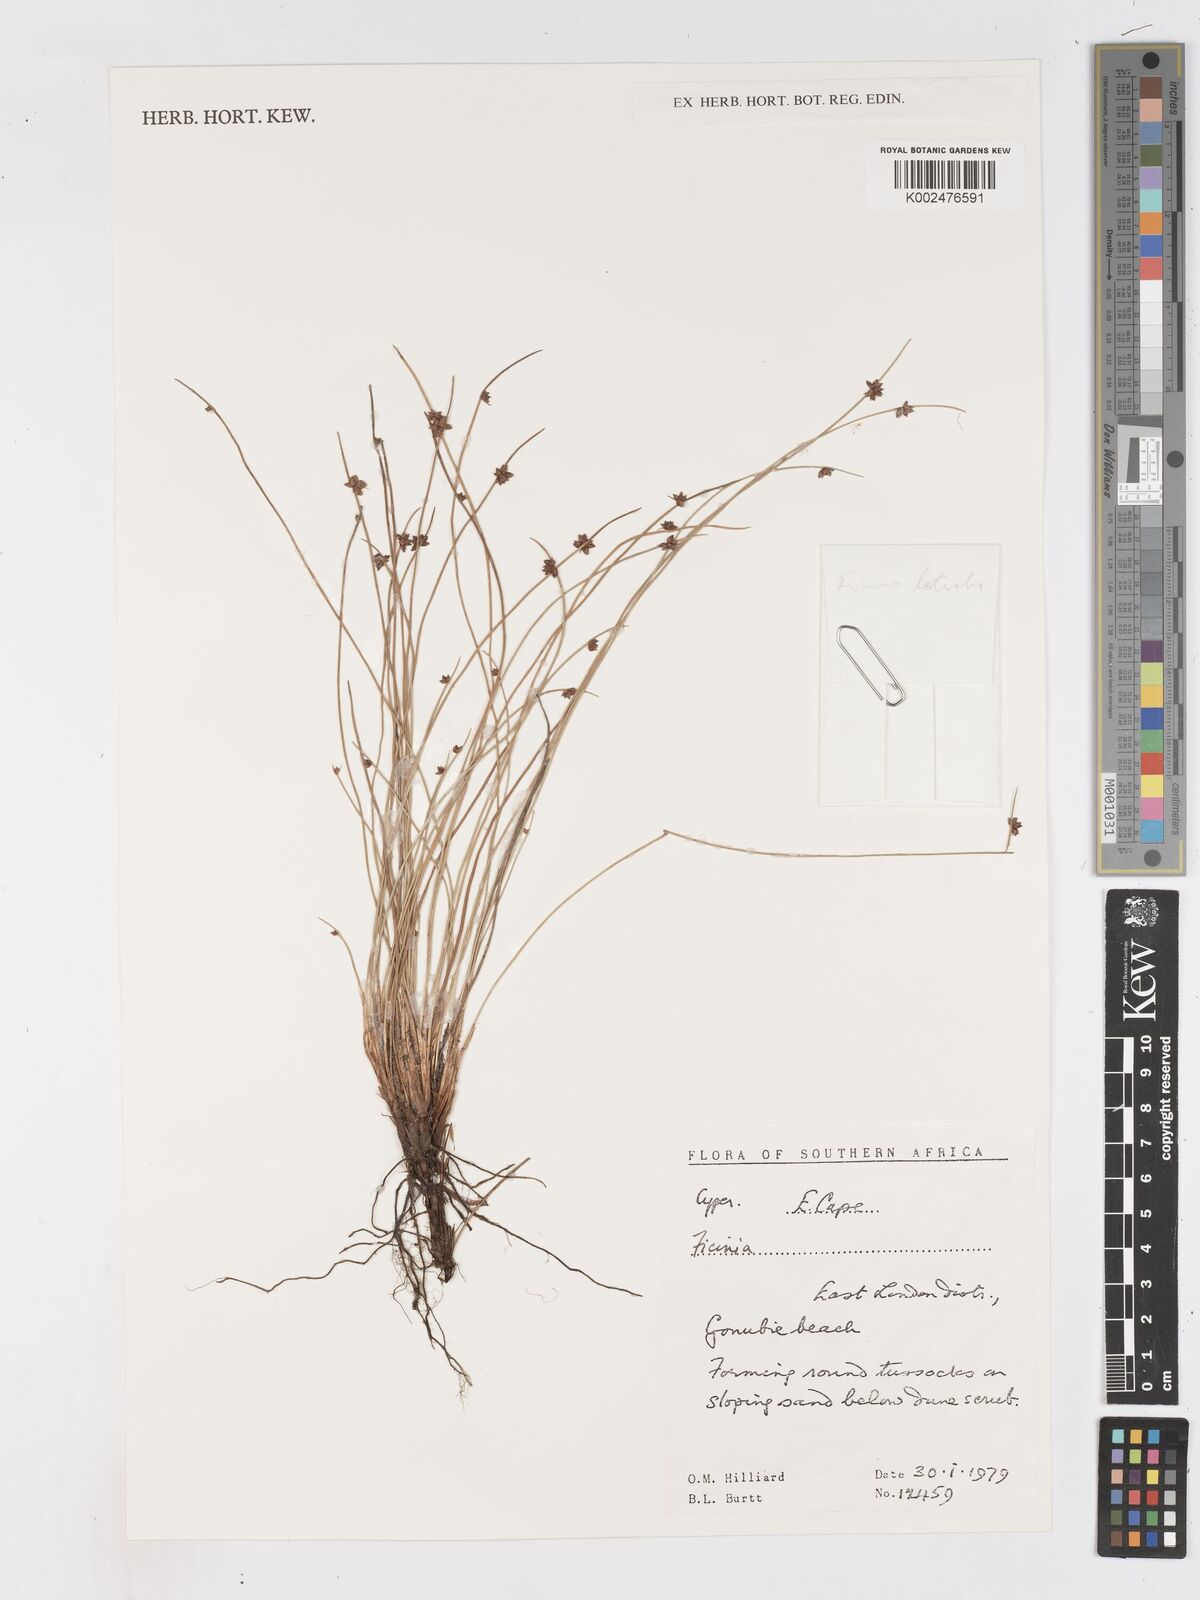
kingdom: Plantae
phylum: Tracheophyta
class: Liliopsida
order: Poales
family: Cyperaceae
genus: Ficinia
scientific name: Ficinia
